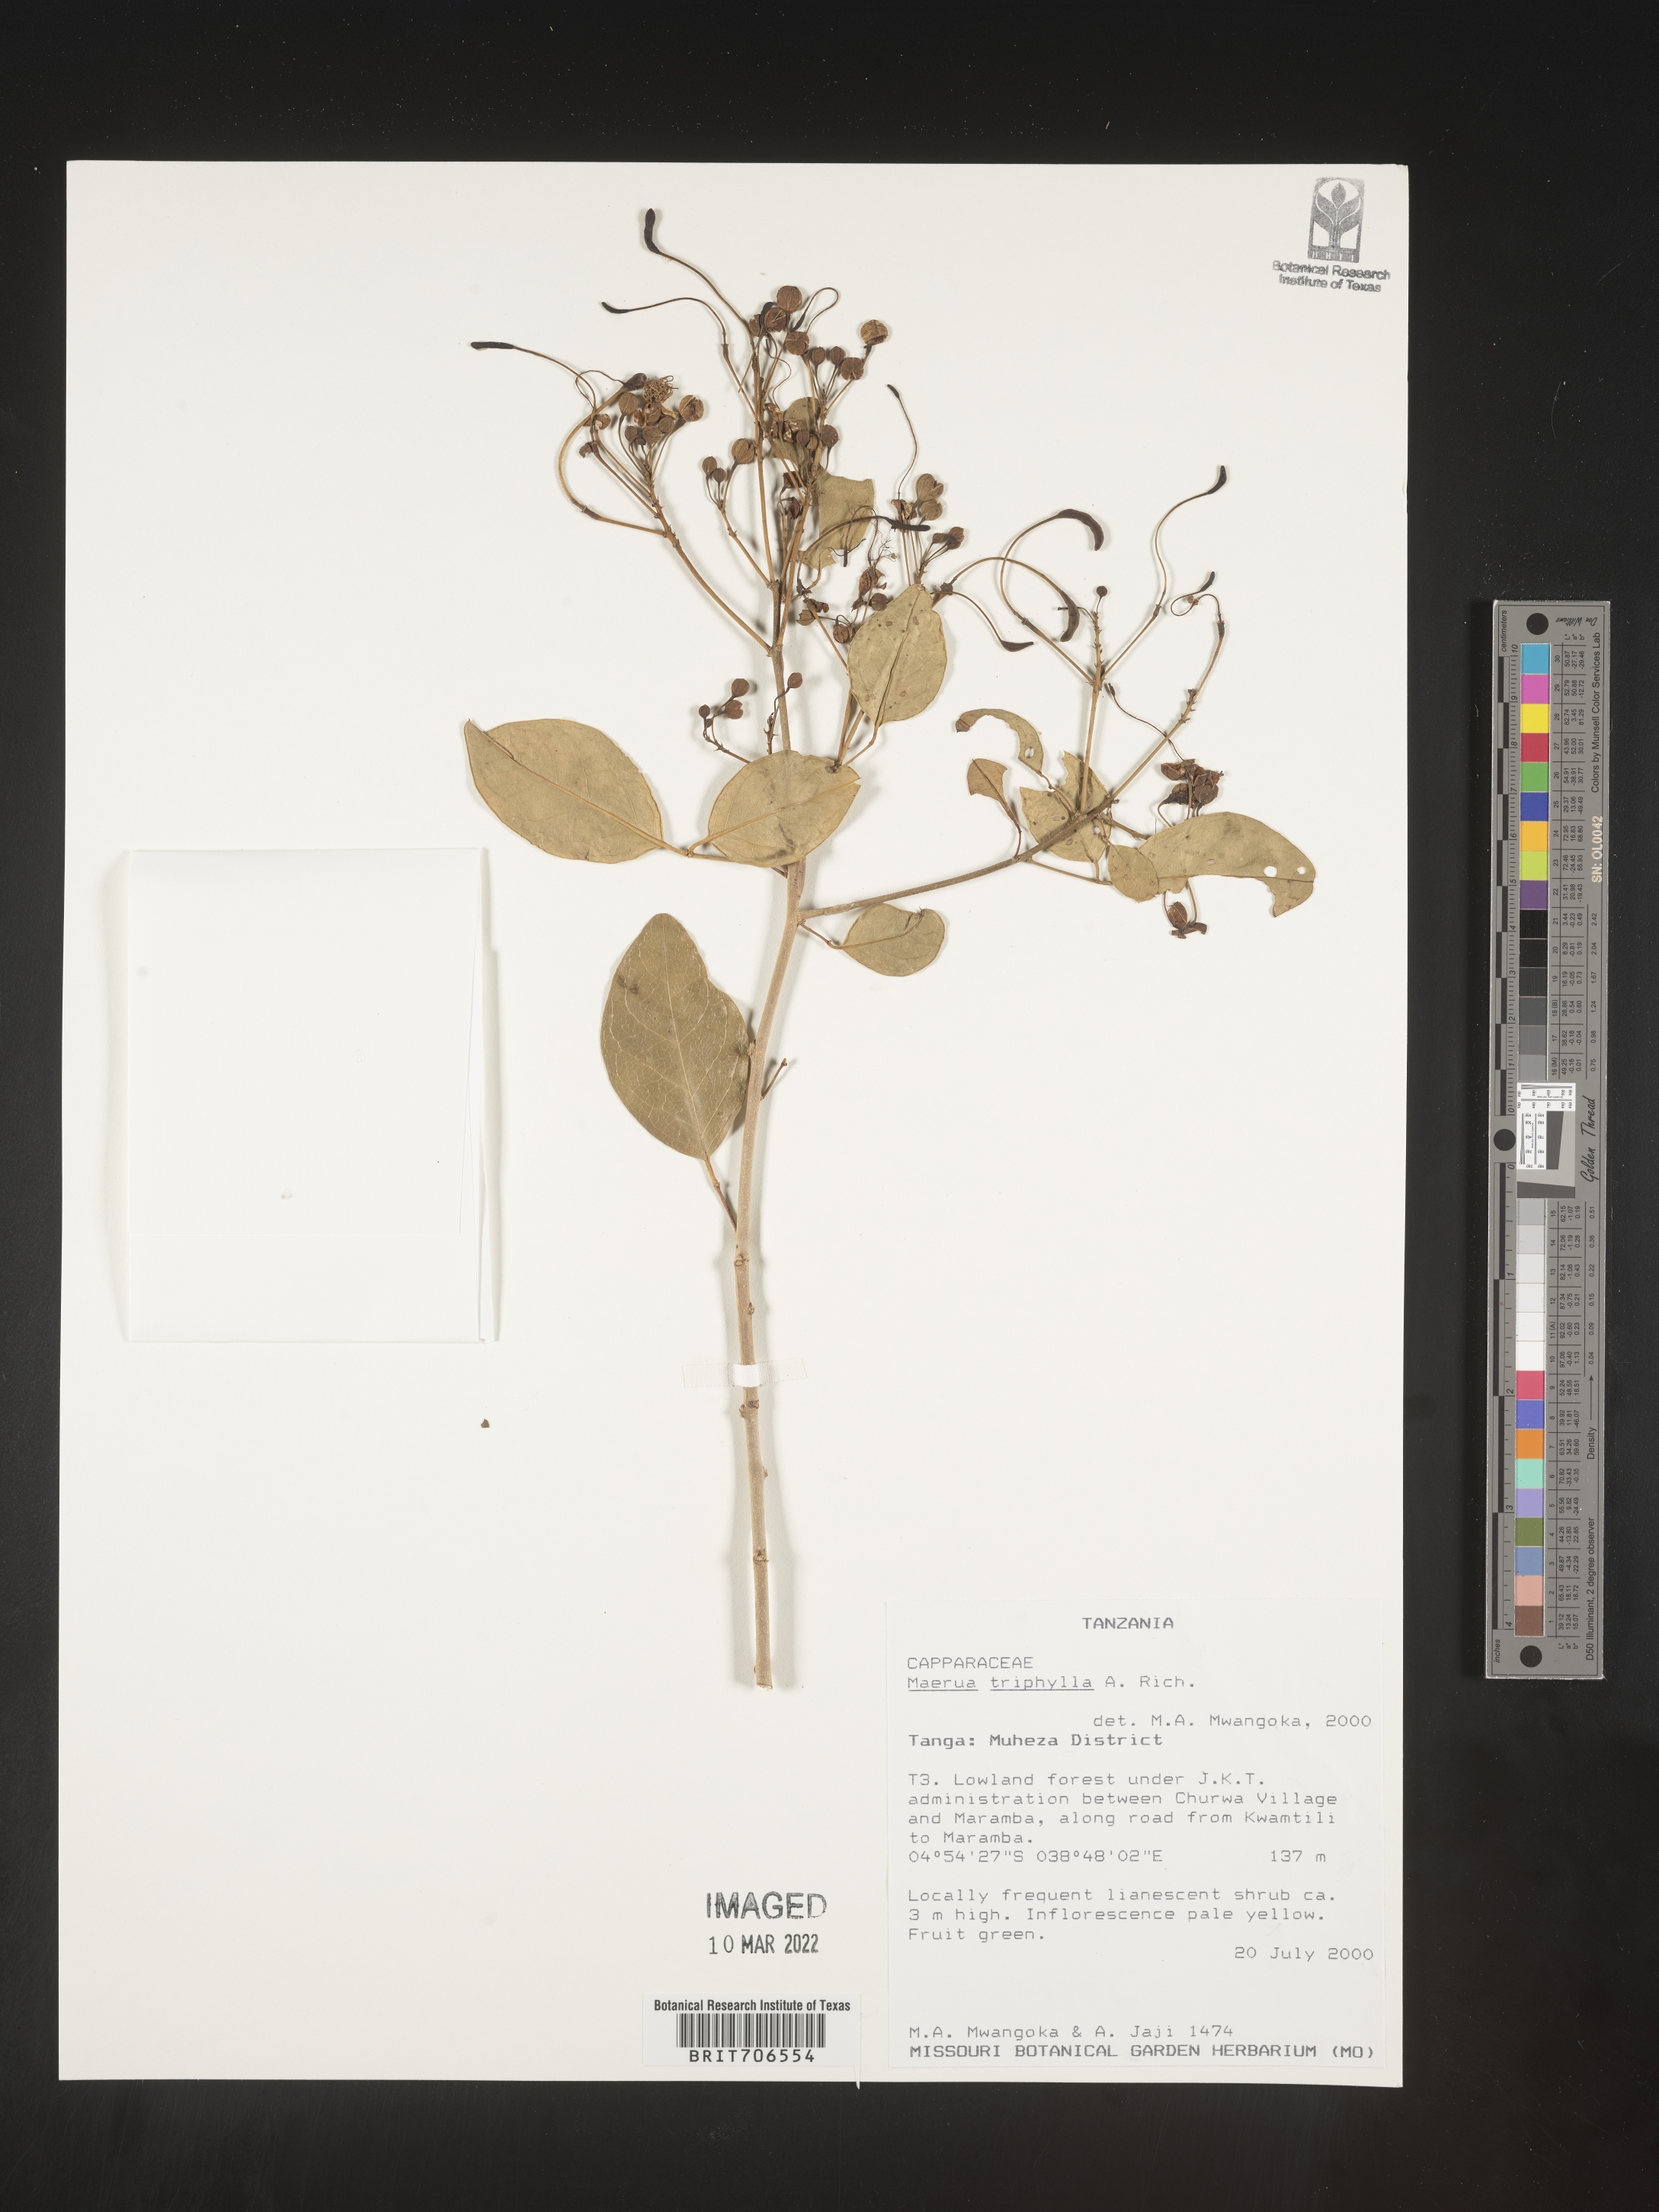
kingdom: Plantae
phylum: Tracheophyta
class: Magnoliopsida
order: Brassicales
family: Capparaceae
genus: Maerua
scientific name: Maerua
